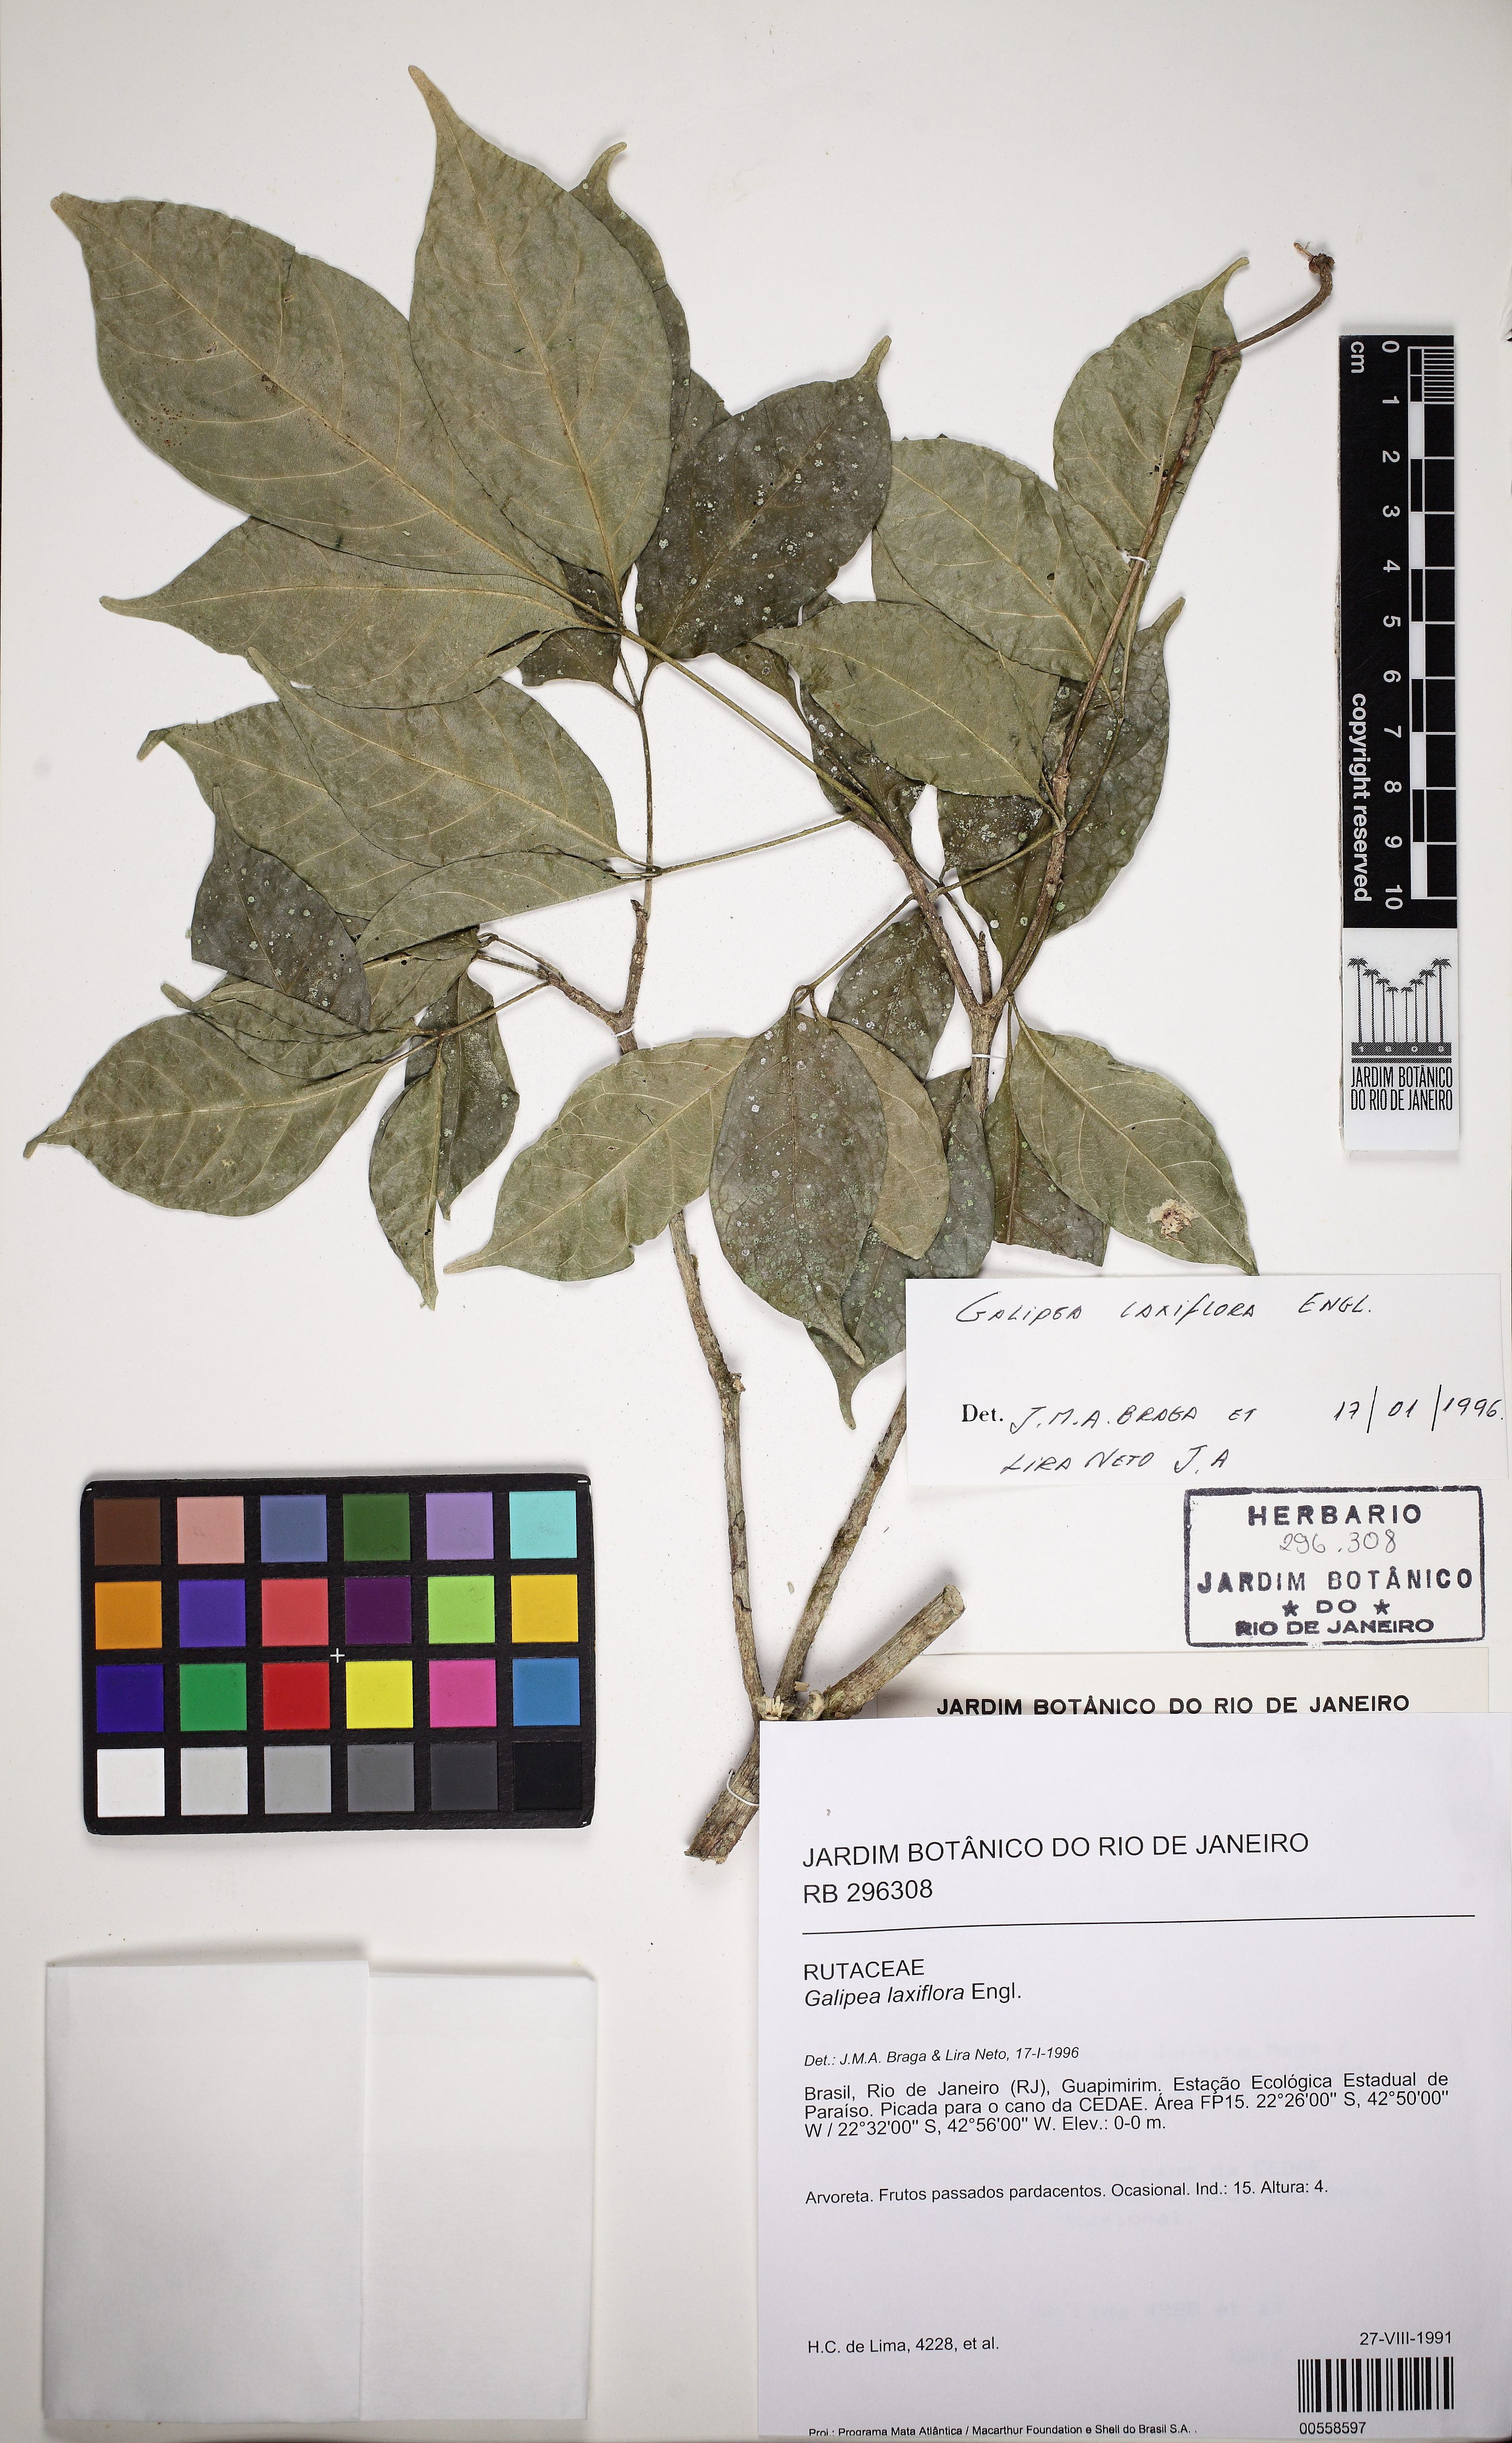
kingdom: Plantae
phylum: Tracheophyta
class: Magnoliopsida
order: Sapindales
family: Rutaceae
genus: Galipea
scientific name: Galipea laxiflora
